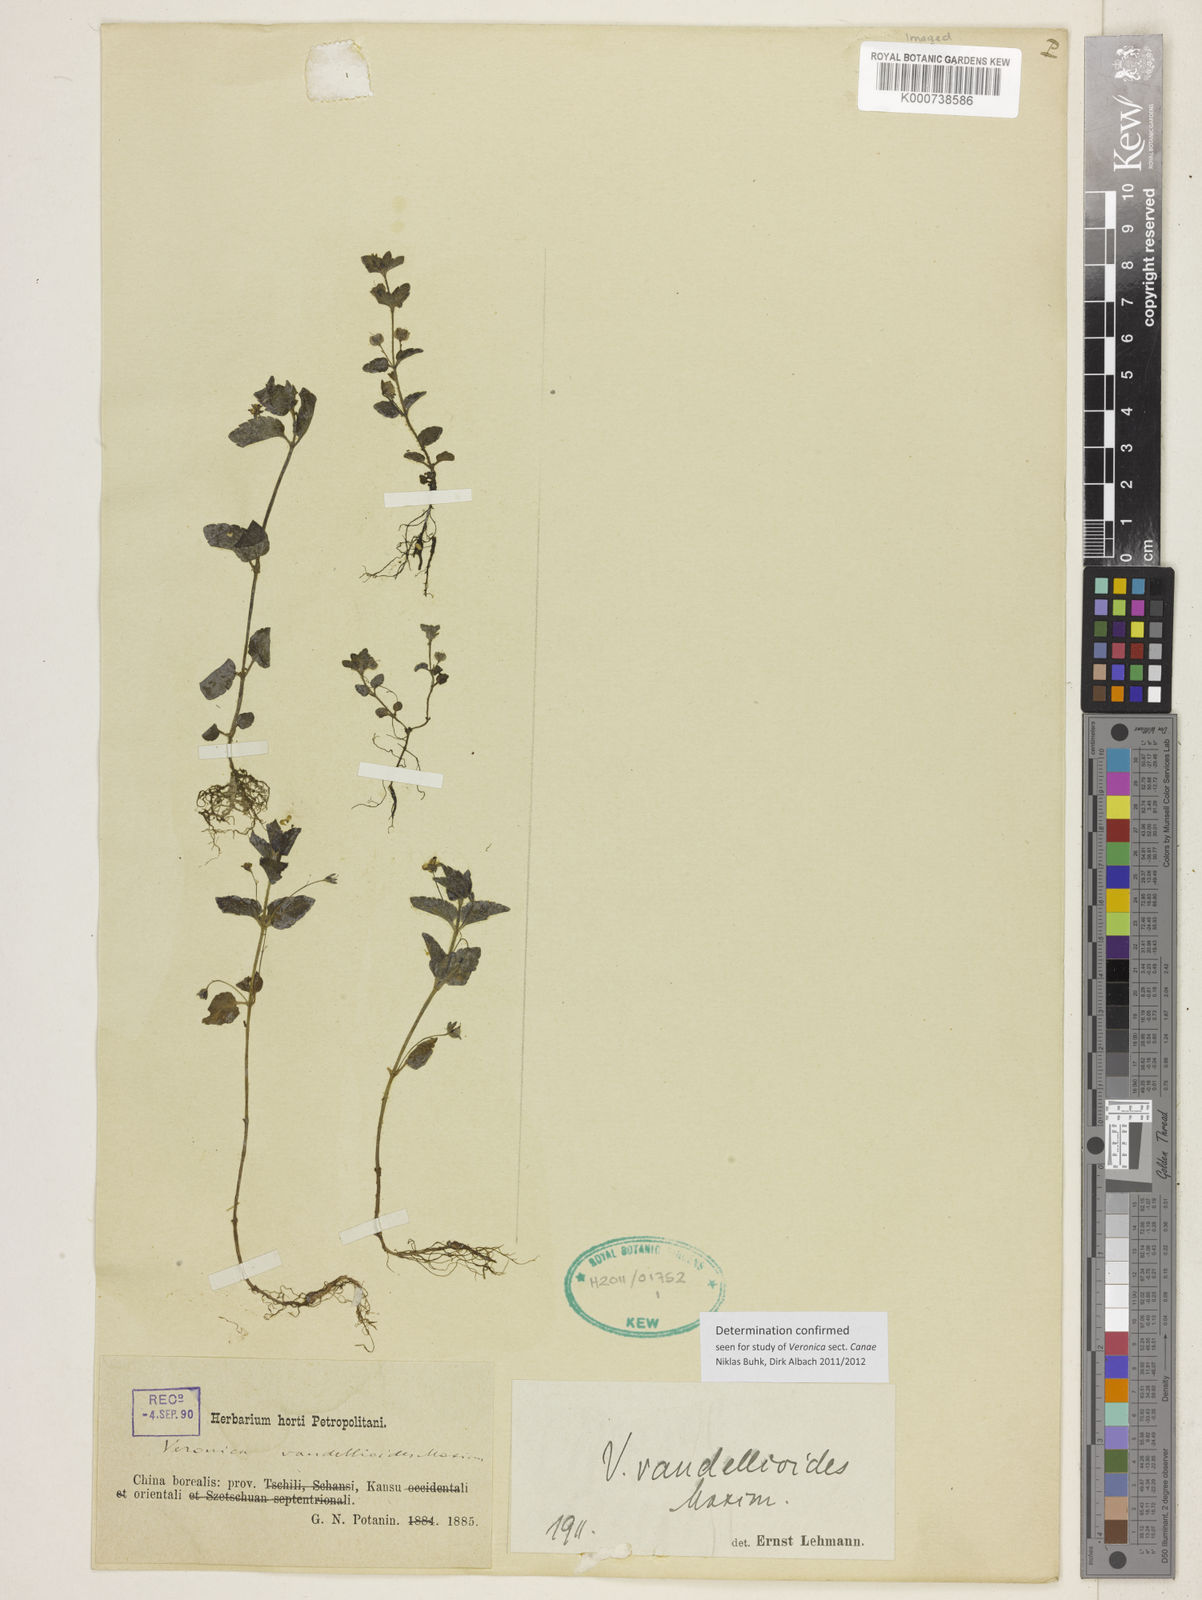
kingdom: Plantae
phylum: Tracheophyta
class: Magnoliopsida
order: Lamiales
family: Plantaginaceae
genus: Veronica
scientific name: Veronica vandellioides
